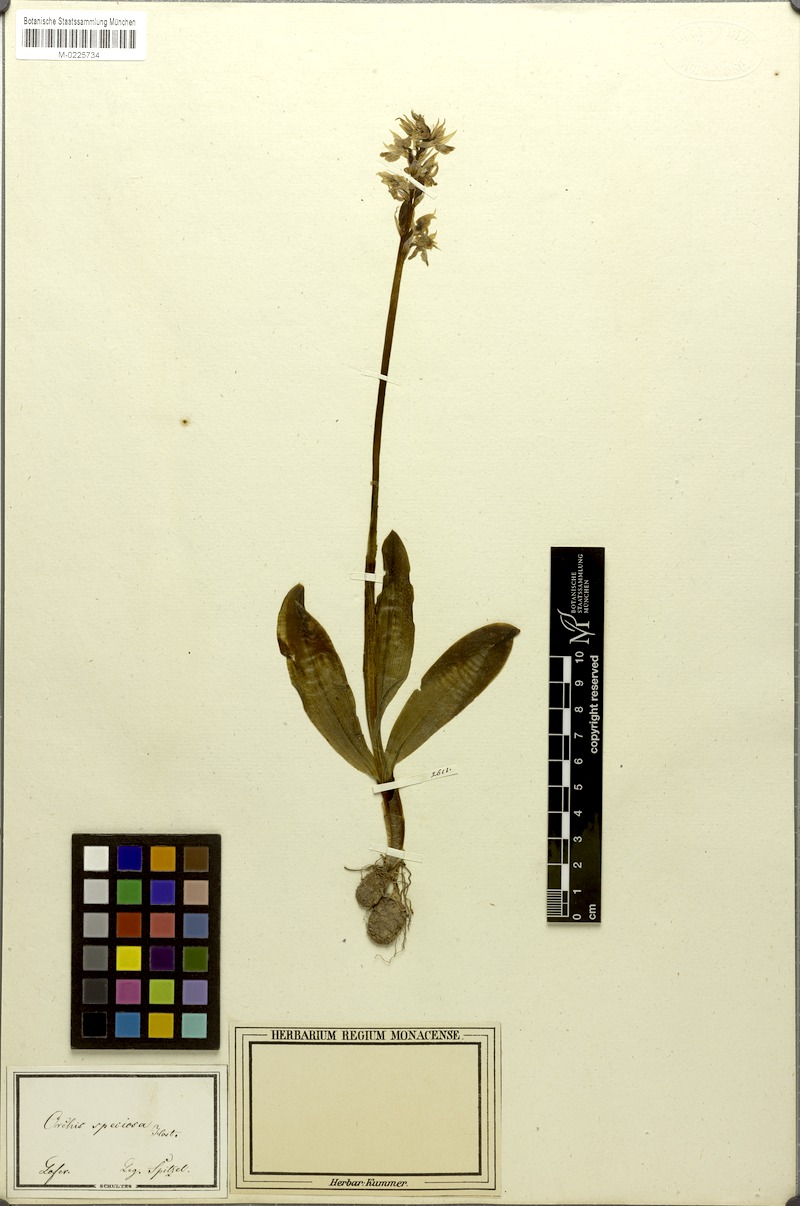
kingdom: Plantae
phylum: Tracheophyta
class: Liliopsida
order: Asparagales
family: Orchidaceae
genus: Orchis
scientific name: Orchis mascula
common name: Early-purple orchid
